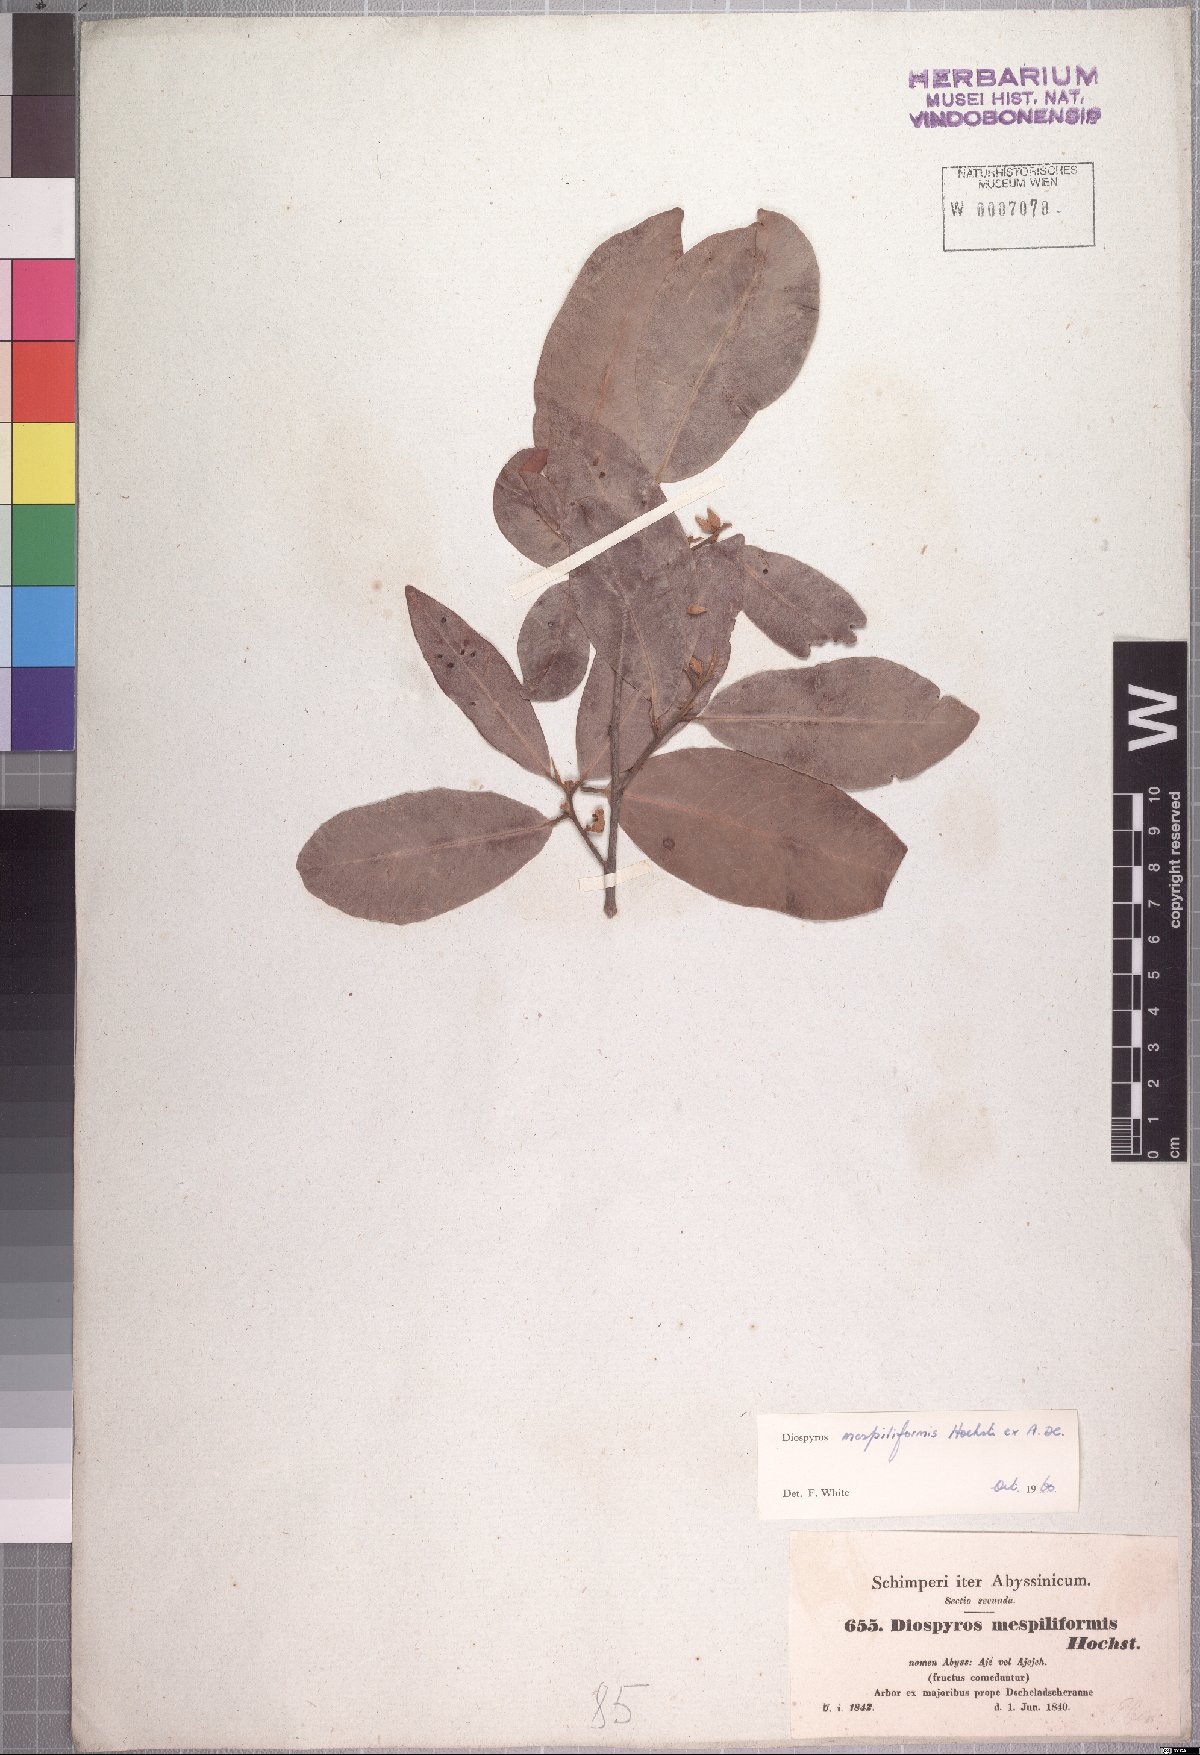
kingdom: Plantae
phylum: Tracheophyta
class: Magnoliopsida
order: Ericales
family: Ebenaceae
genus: Diospyros
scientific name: Diospyros mespiliformis
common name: Ebony diospyros
